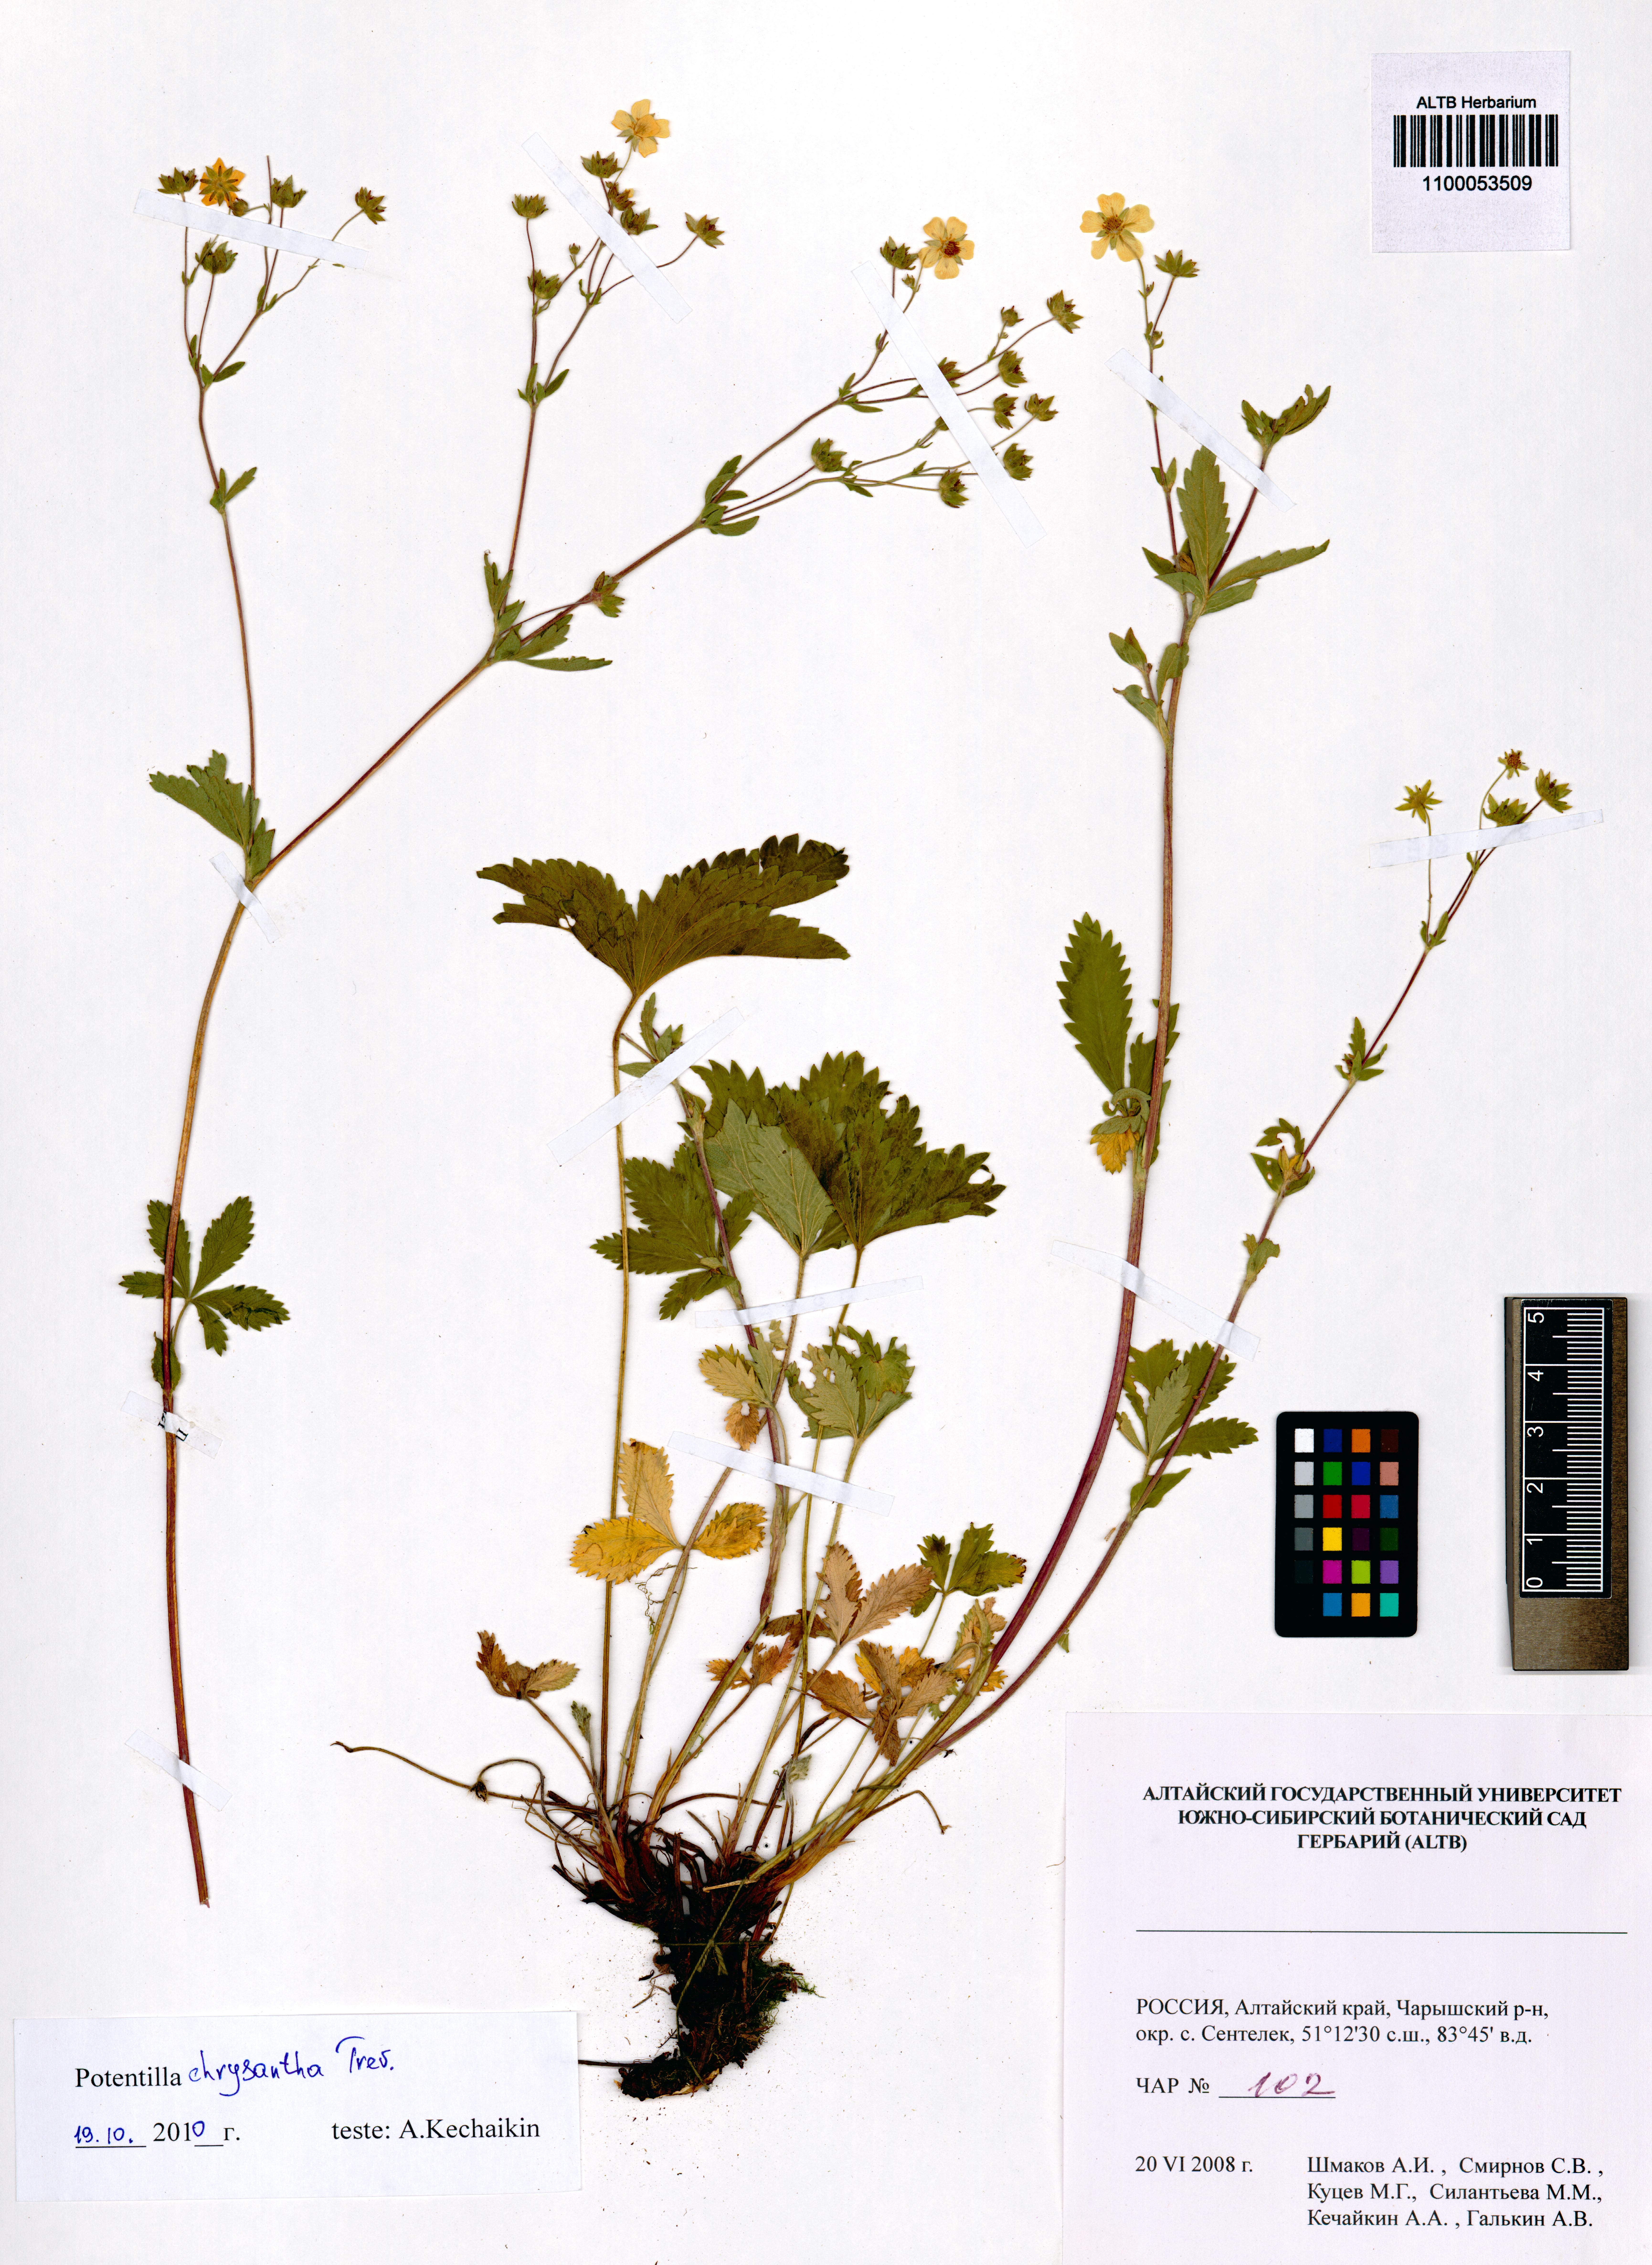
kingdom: Plantae
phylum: Tracheophyta
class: Magnoliopsida
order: Rosales
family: Rosaceae
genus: Potentilla
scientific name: Potentilla chrysantha
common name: Thuringian cinquefoil
